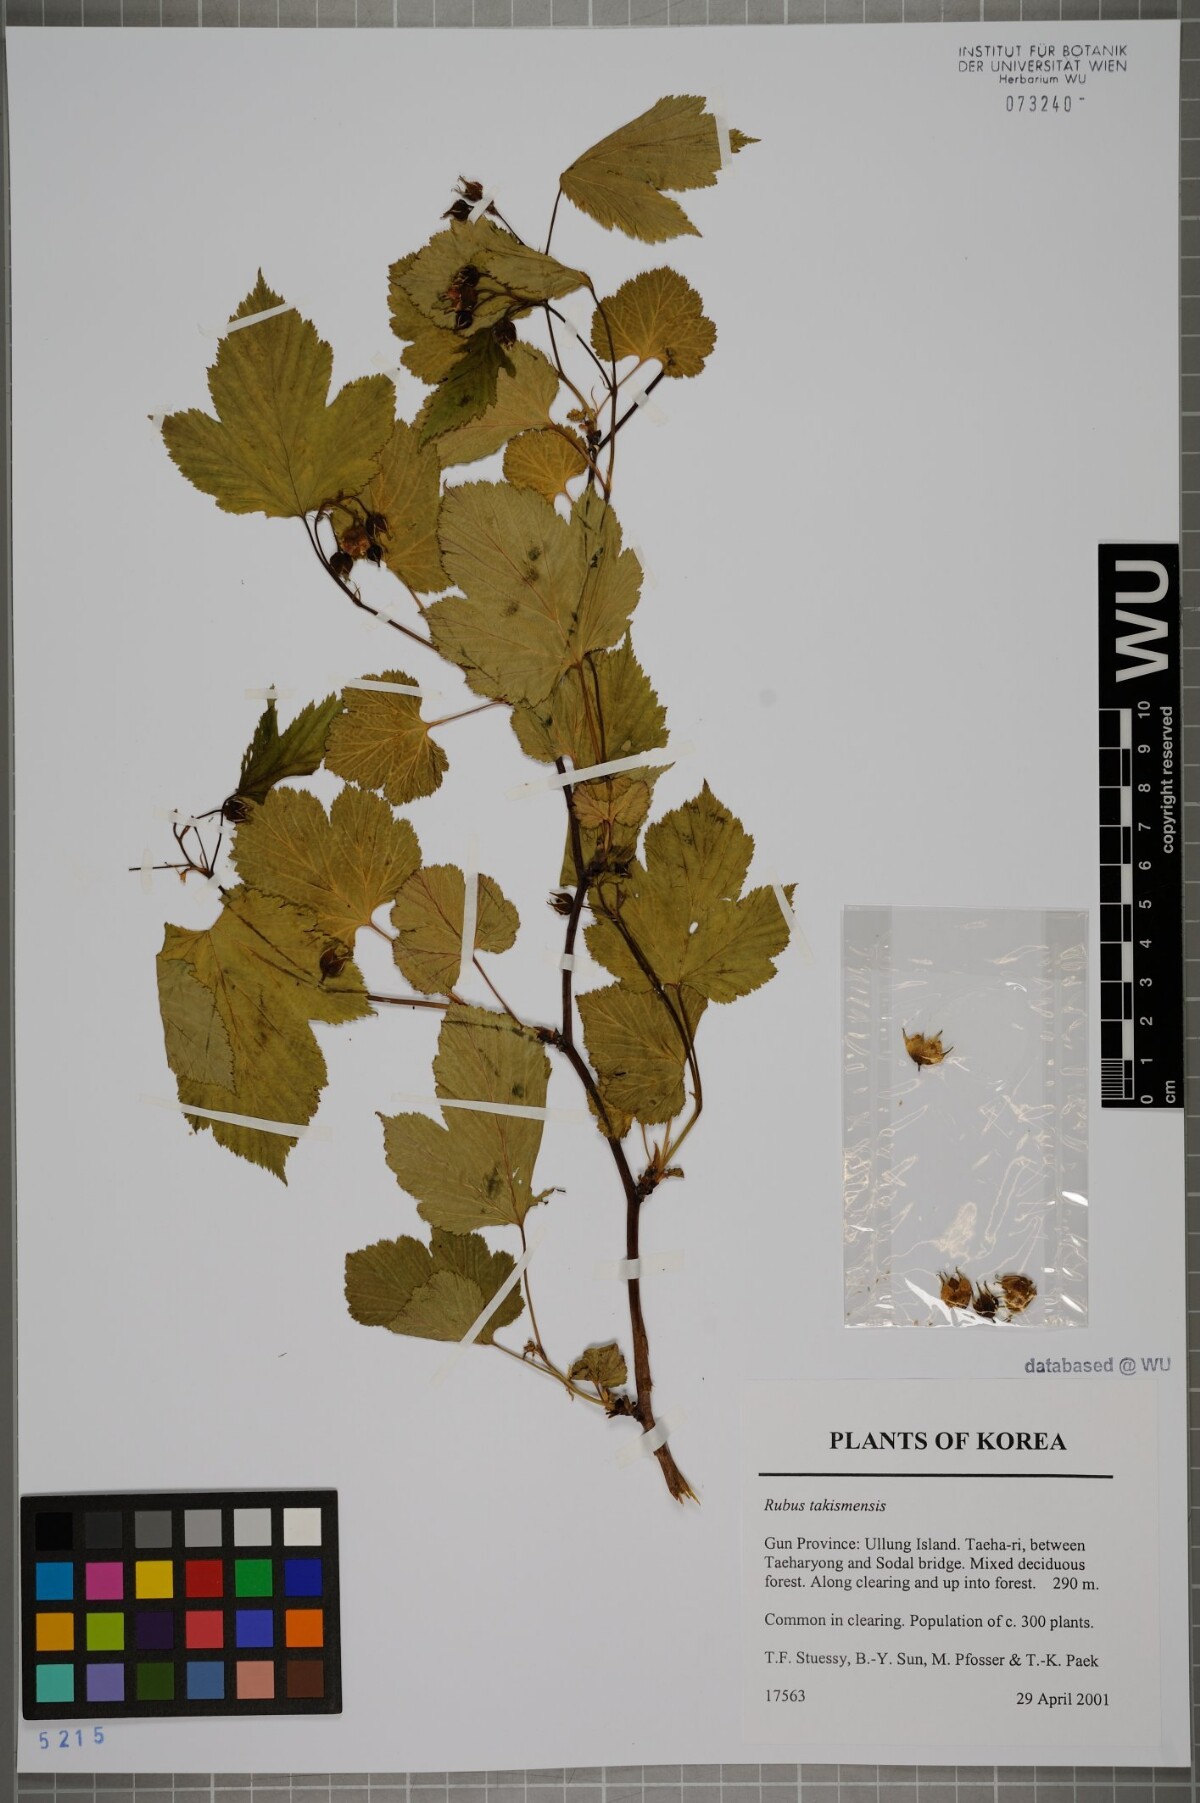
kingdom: Plantae
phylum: Tracheophyta
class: Magnoliopsida
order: Rosales
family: Rosaceae
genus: Rubus
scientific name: Rubus crataegifolius
